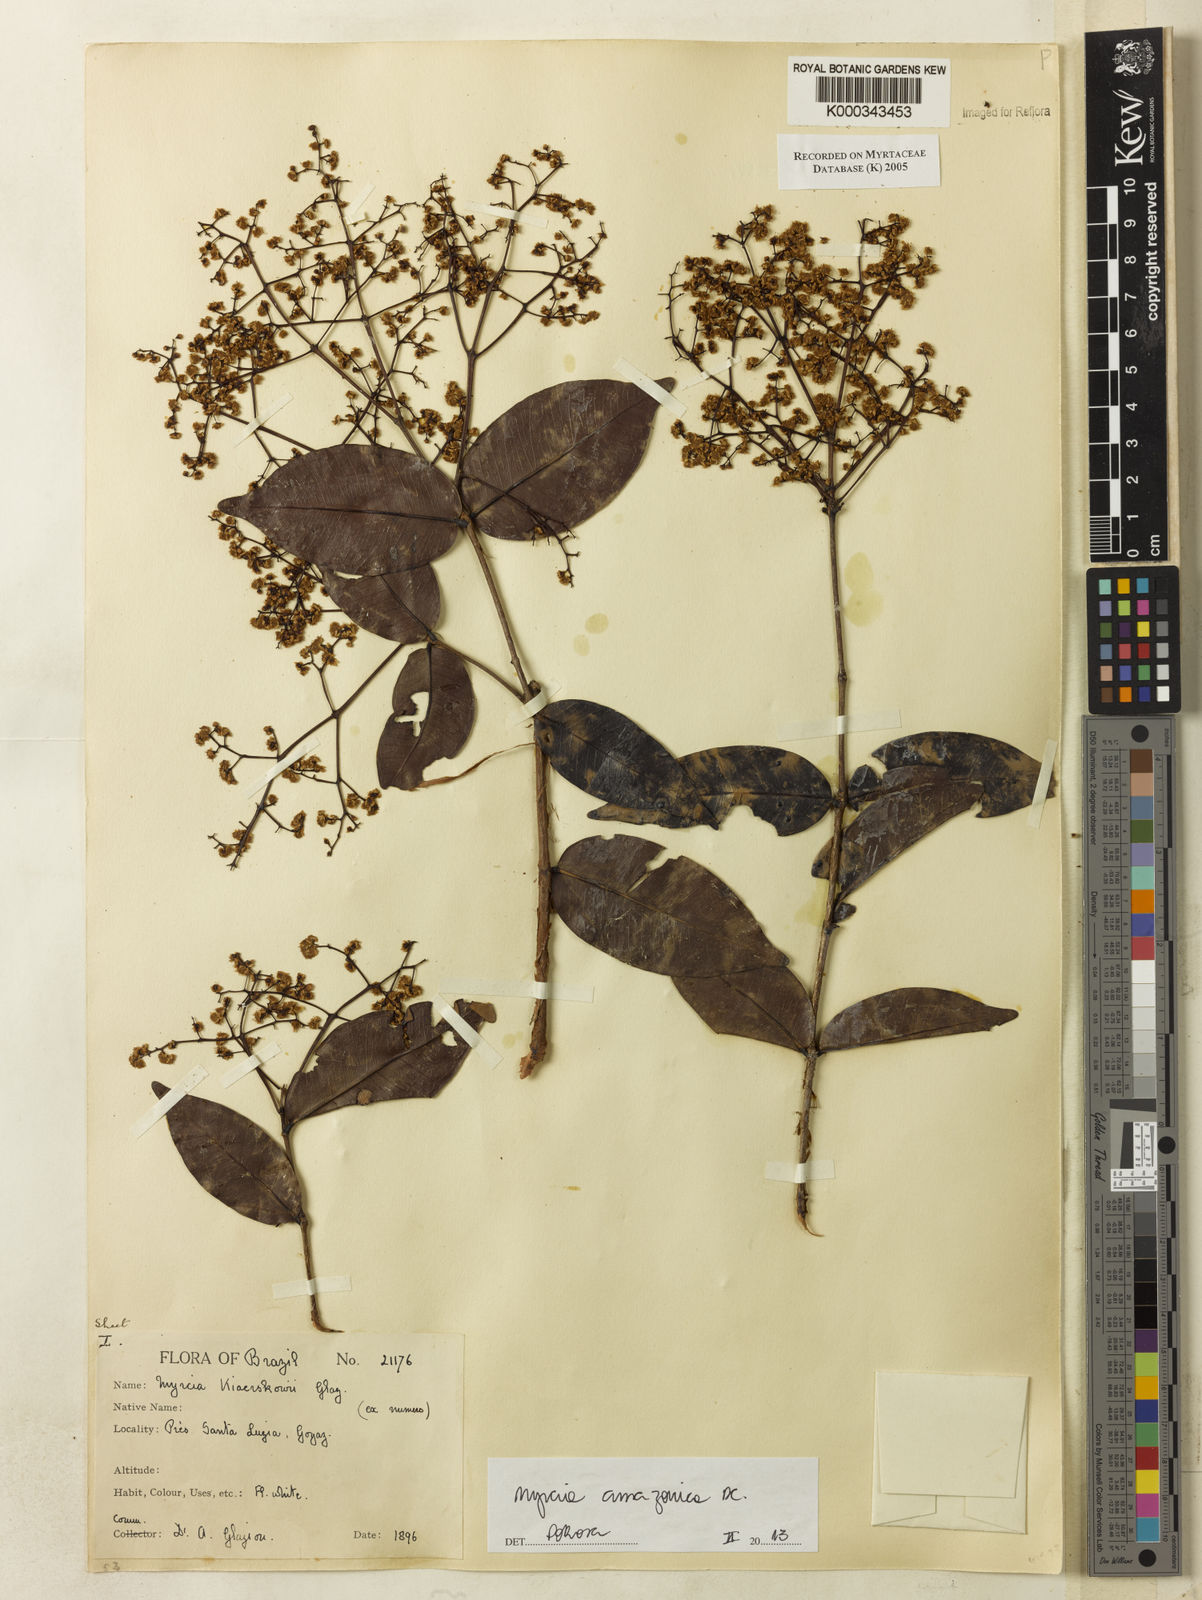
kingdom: Plantae
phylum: Tracheophyta
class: Magnoliopsida
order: Myrtales
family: Myrtaceae
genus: Myrcia
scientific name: Myrcia
